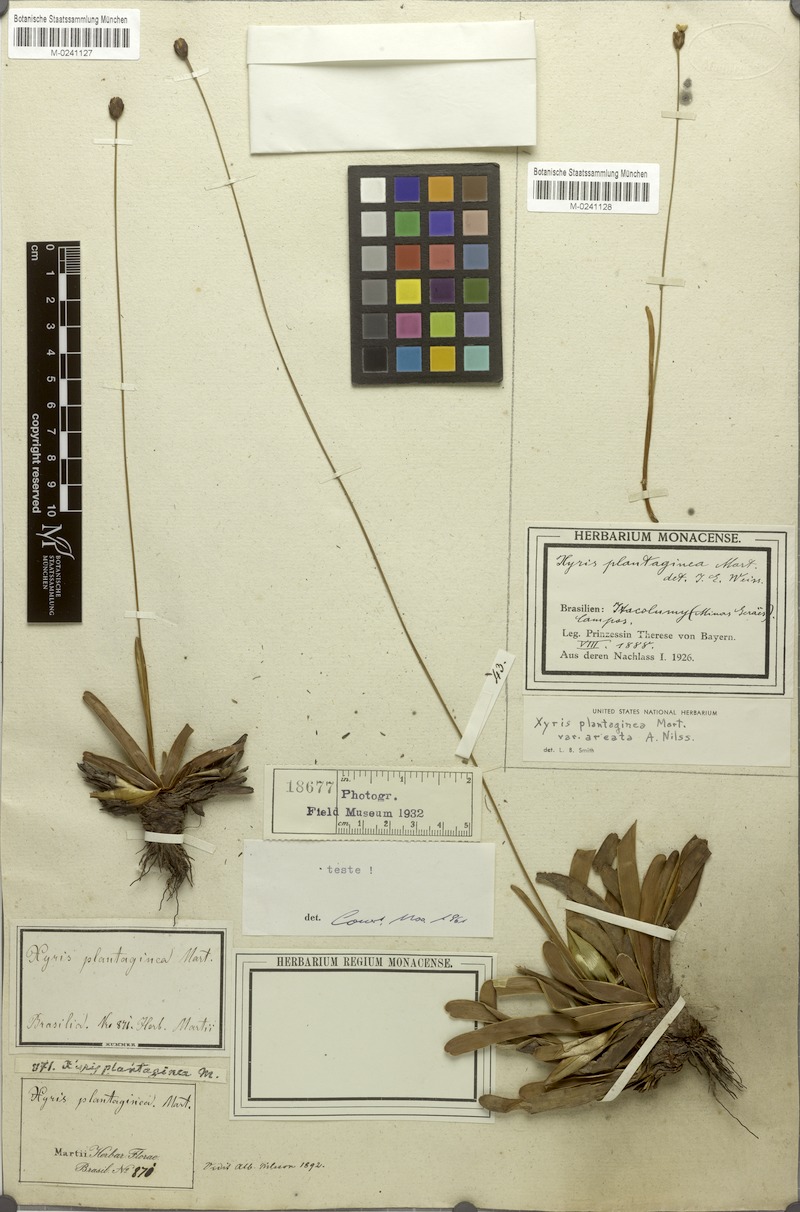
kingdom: Plantae
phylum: Tracheophyta
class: Liliopsida
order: Poales
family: Xyridaceae
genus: Xyris
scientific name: Xyris plantaginea
